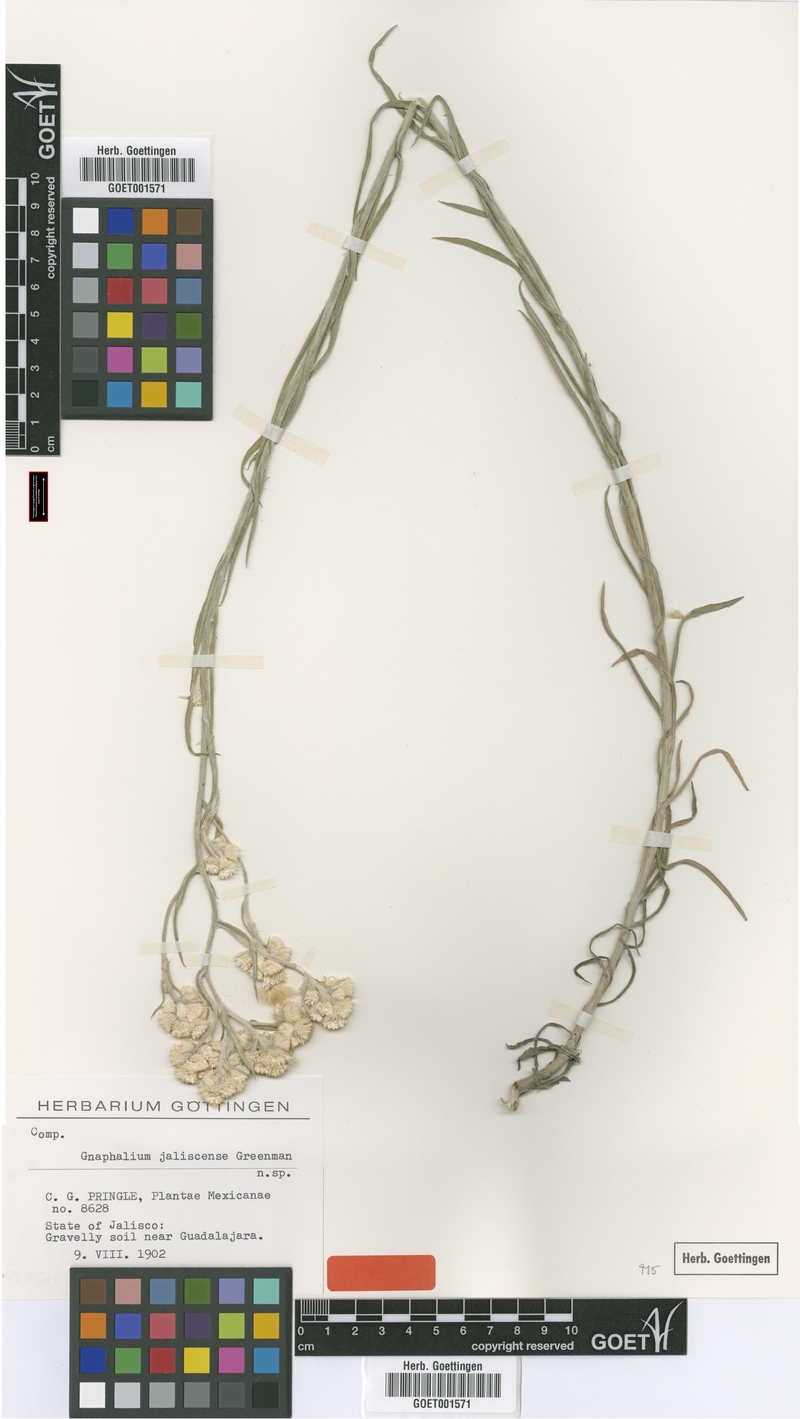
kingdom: Plantae
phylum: Tracheophyta
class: Magnoliopsida
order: Asterales
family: Asteraceae
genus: Pseudognaphalium
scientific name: Pseudognaphalium jaliscense
